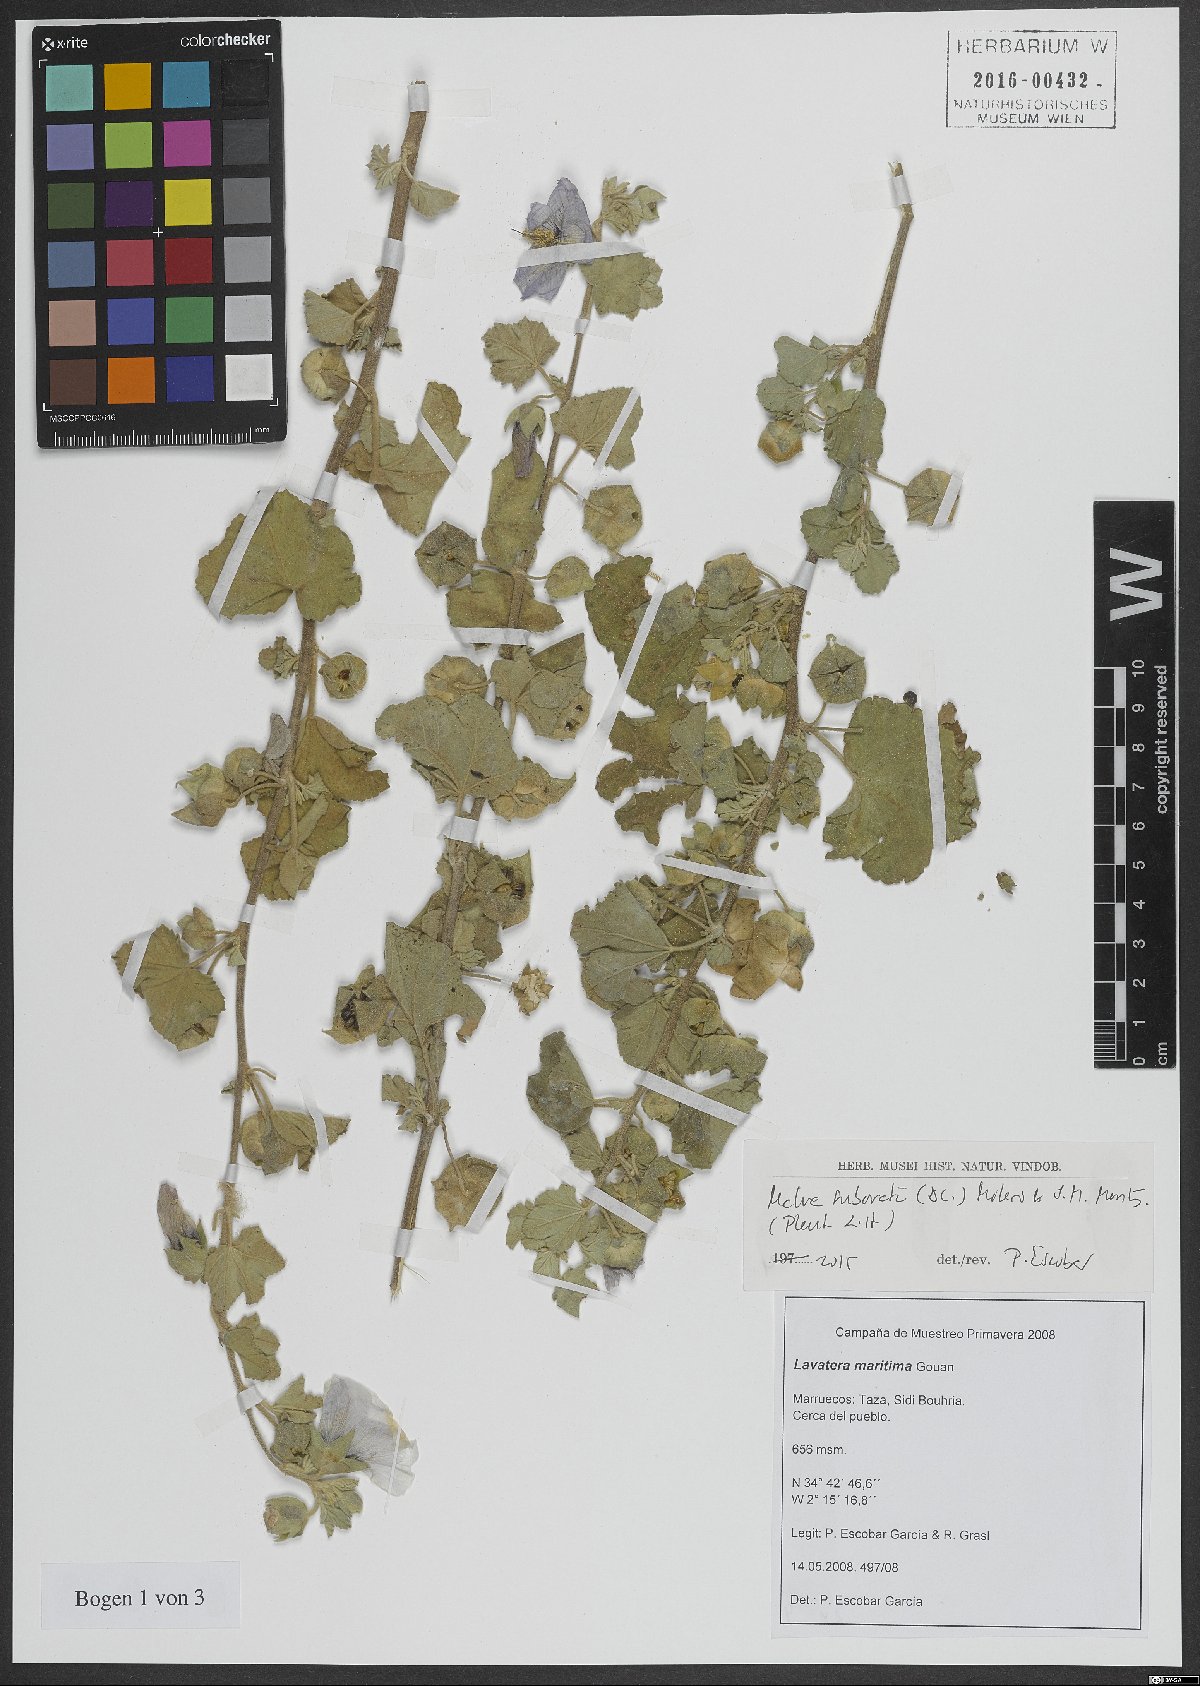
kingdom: Plantae
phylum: Tracheophyta
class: Magnoliopsida
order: Malvales
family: Malvaceae
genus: Malva
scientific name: Malva subovata
